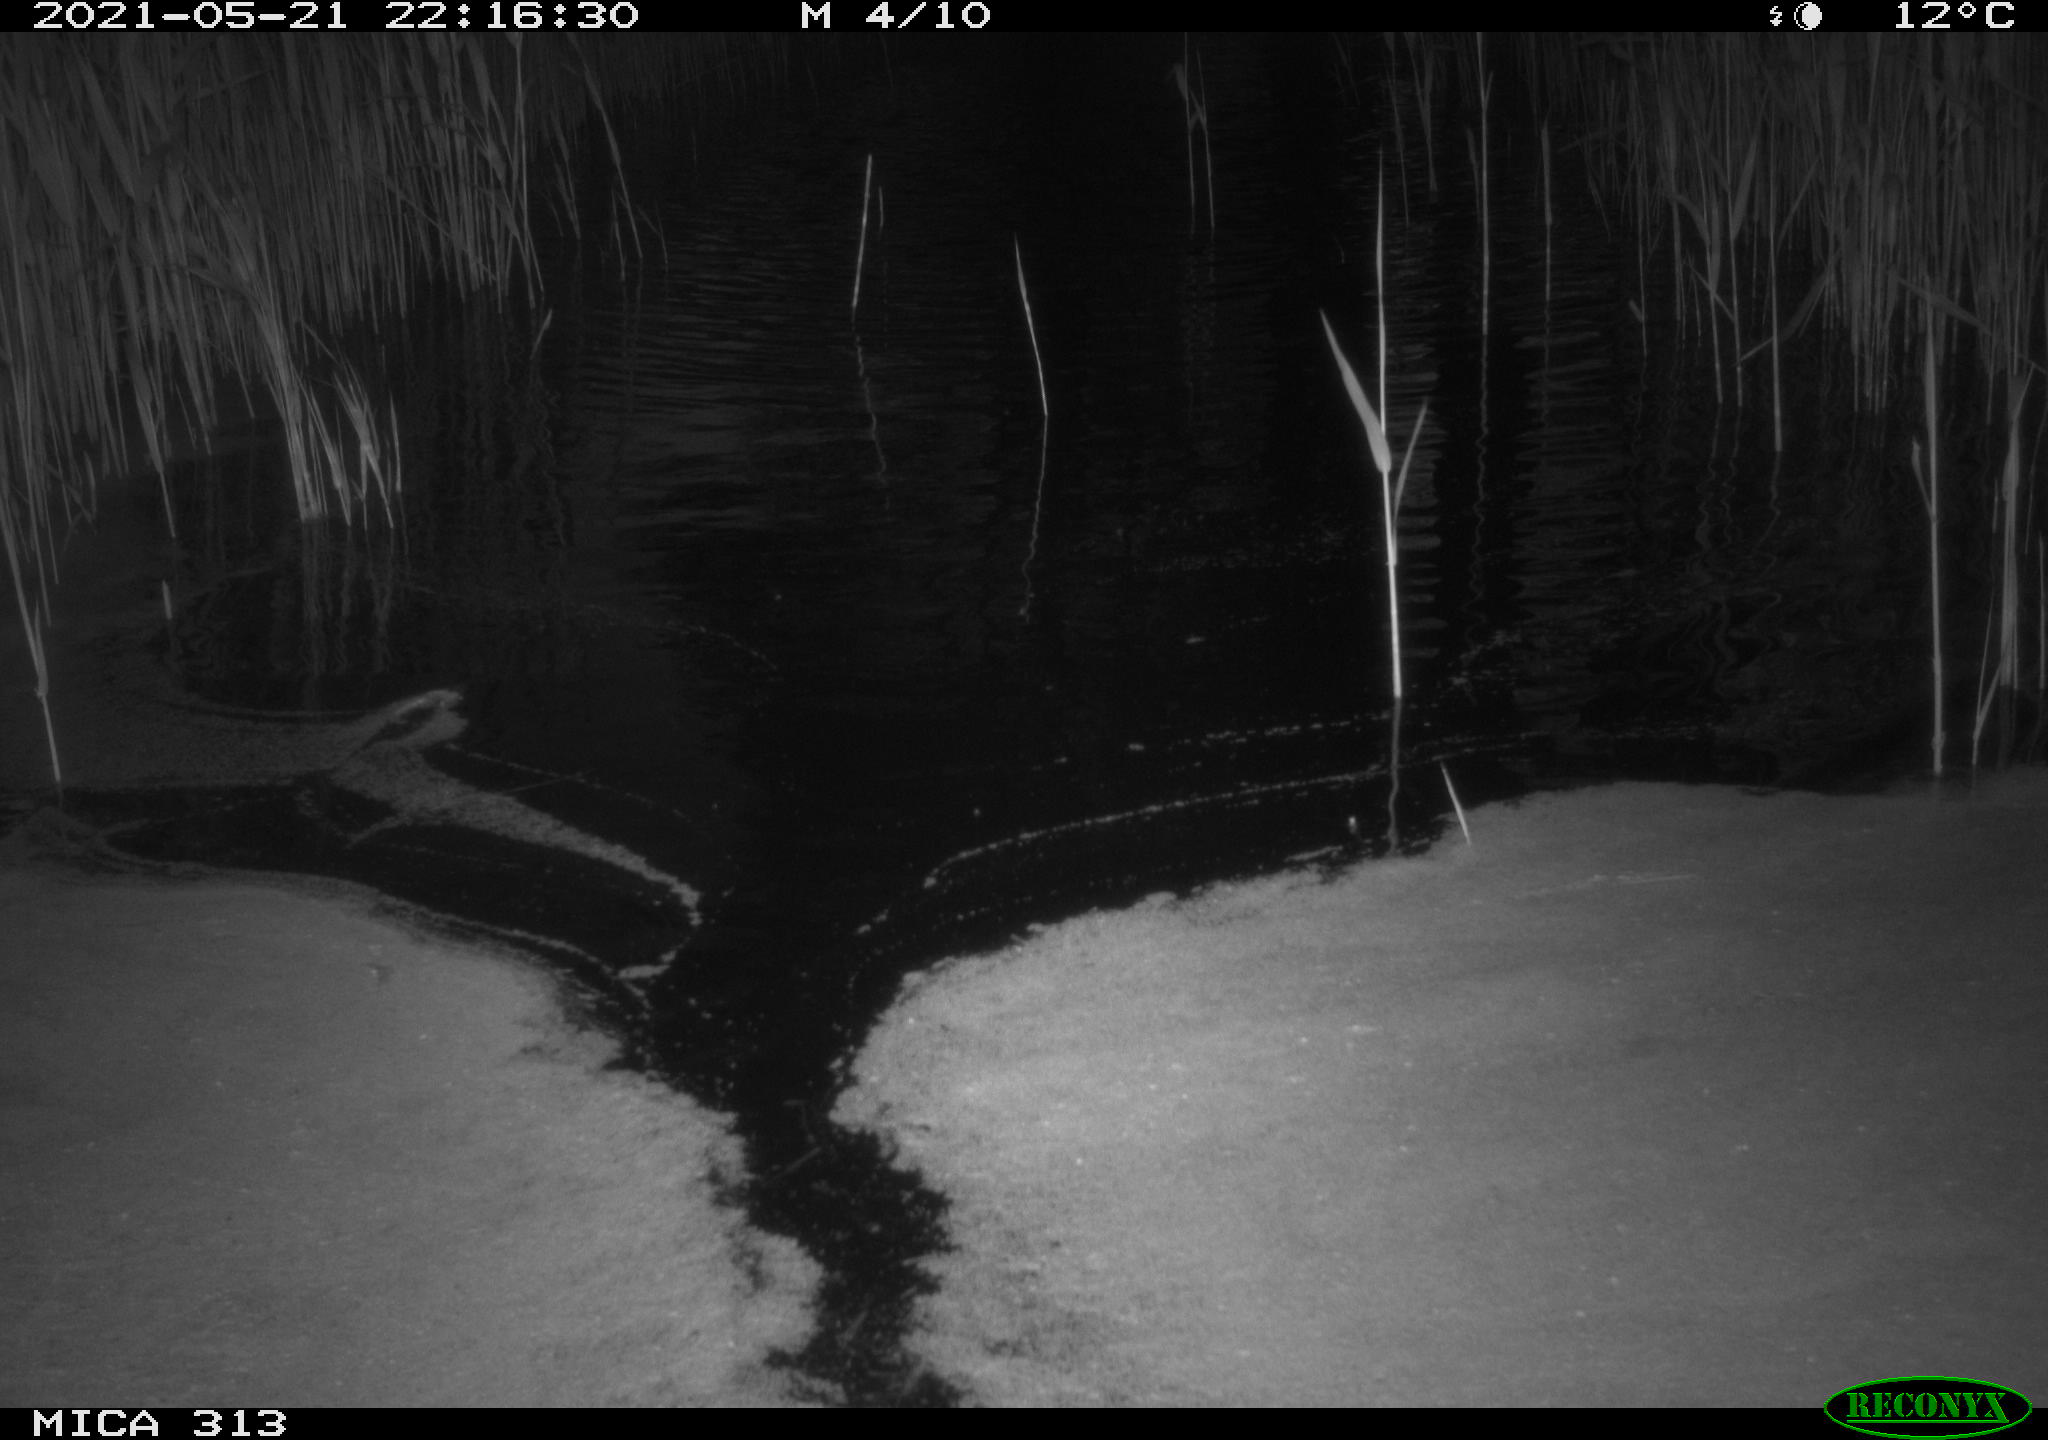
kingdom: Animalia
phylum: Chordata
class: Aves
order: Anseriformes
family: Anatidae
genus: Anas
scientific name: Anas platyrhynchos
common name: Mallard
